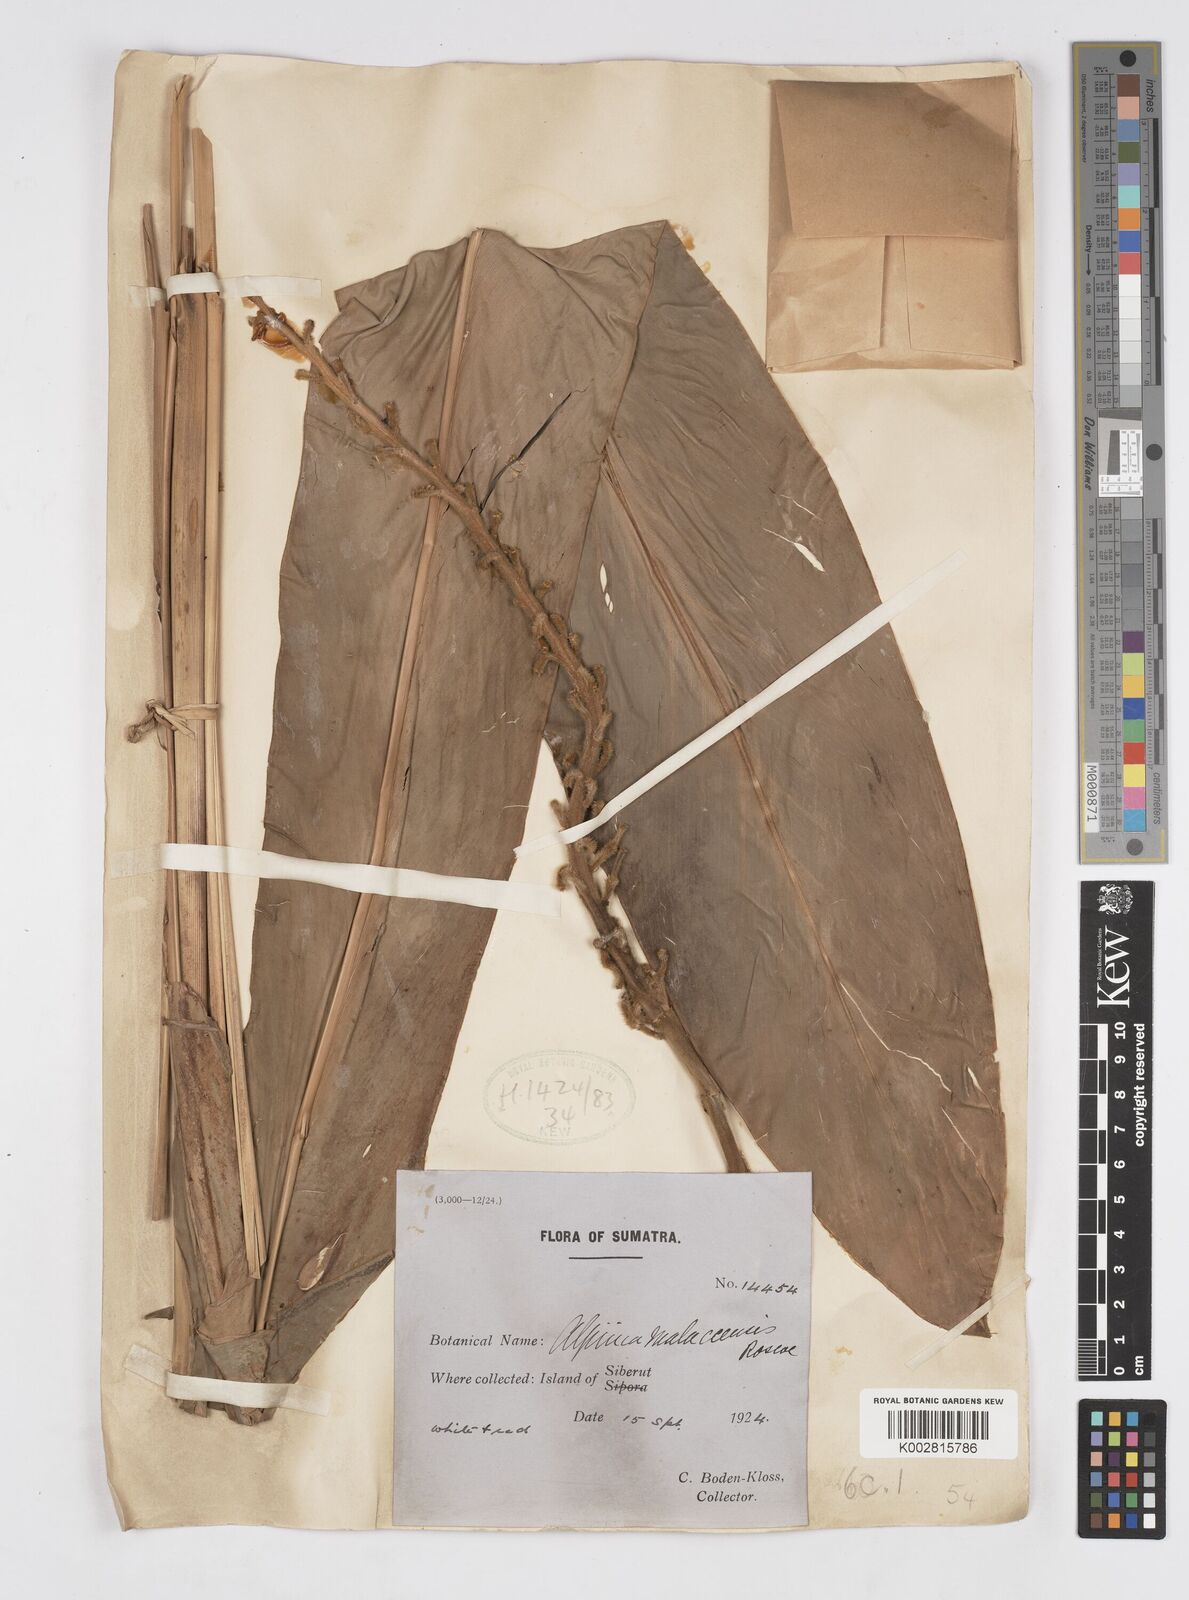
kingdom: Plantae
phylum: Tracheophyta
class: Liliopsida
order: Zingiberales
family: Zingiberaceae
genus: Alpinia
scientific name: Alpinia malaccensis
